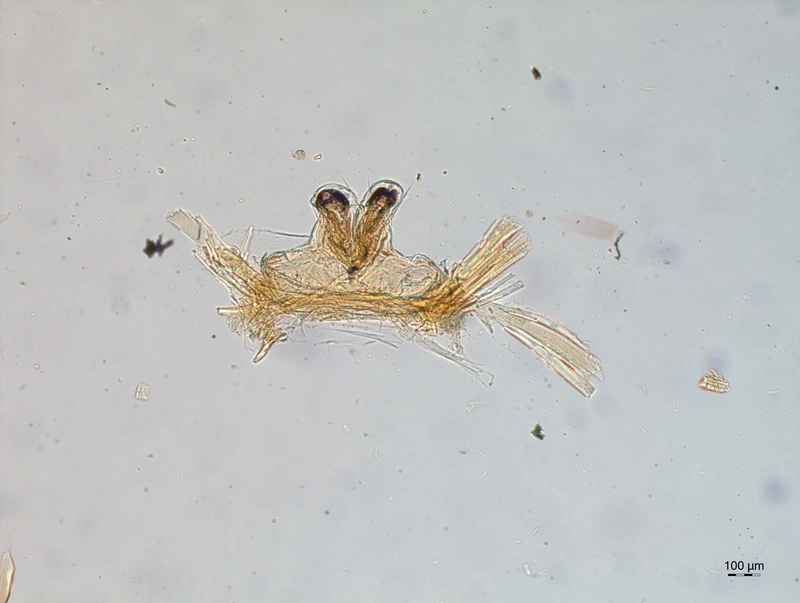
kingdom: Animalia
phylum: Arthropoda
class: Diplopoda
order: Chordeumatida
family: Attemsiidae
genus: Attemsia
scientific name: Attemsia stygia
